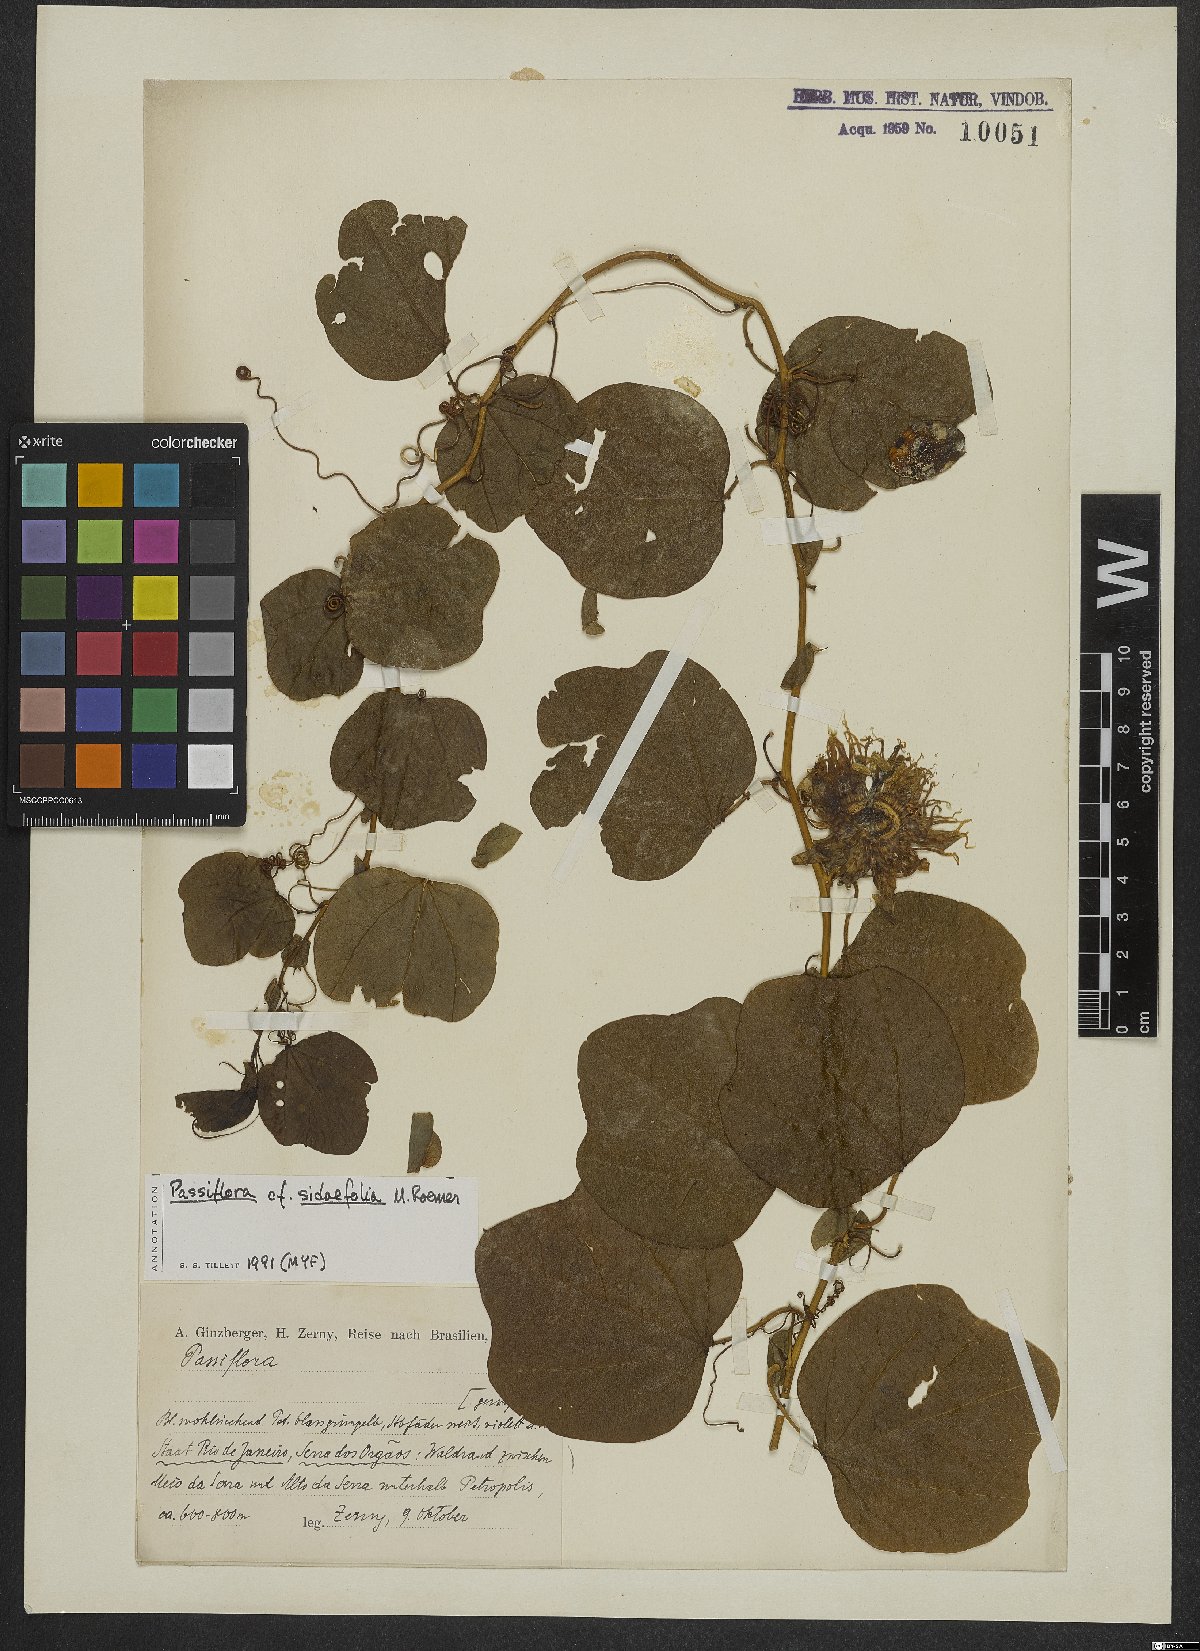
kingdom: Plantae
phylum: Tracheophyta
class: Magnoliopsida
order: Malpighiales
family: Passifloraceae
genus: Passiflora
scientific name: Passiflora tetraden
